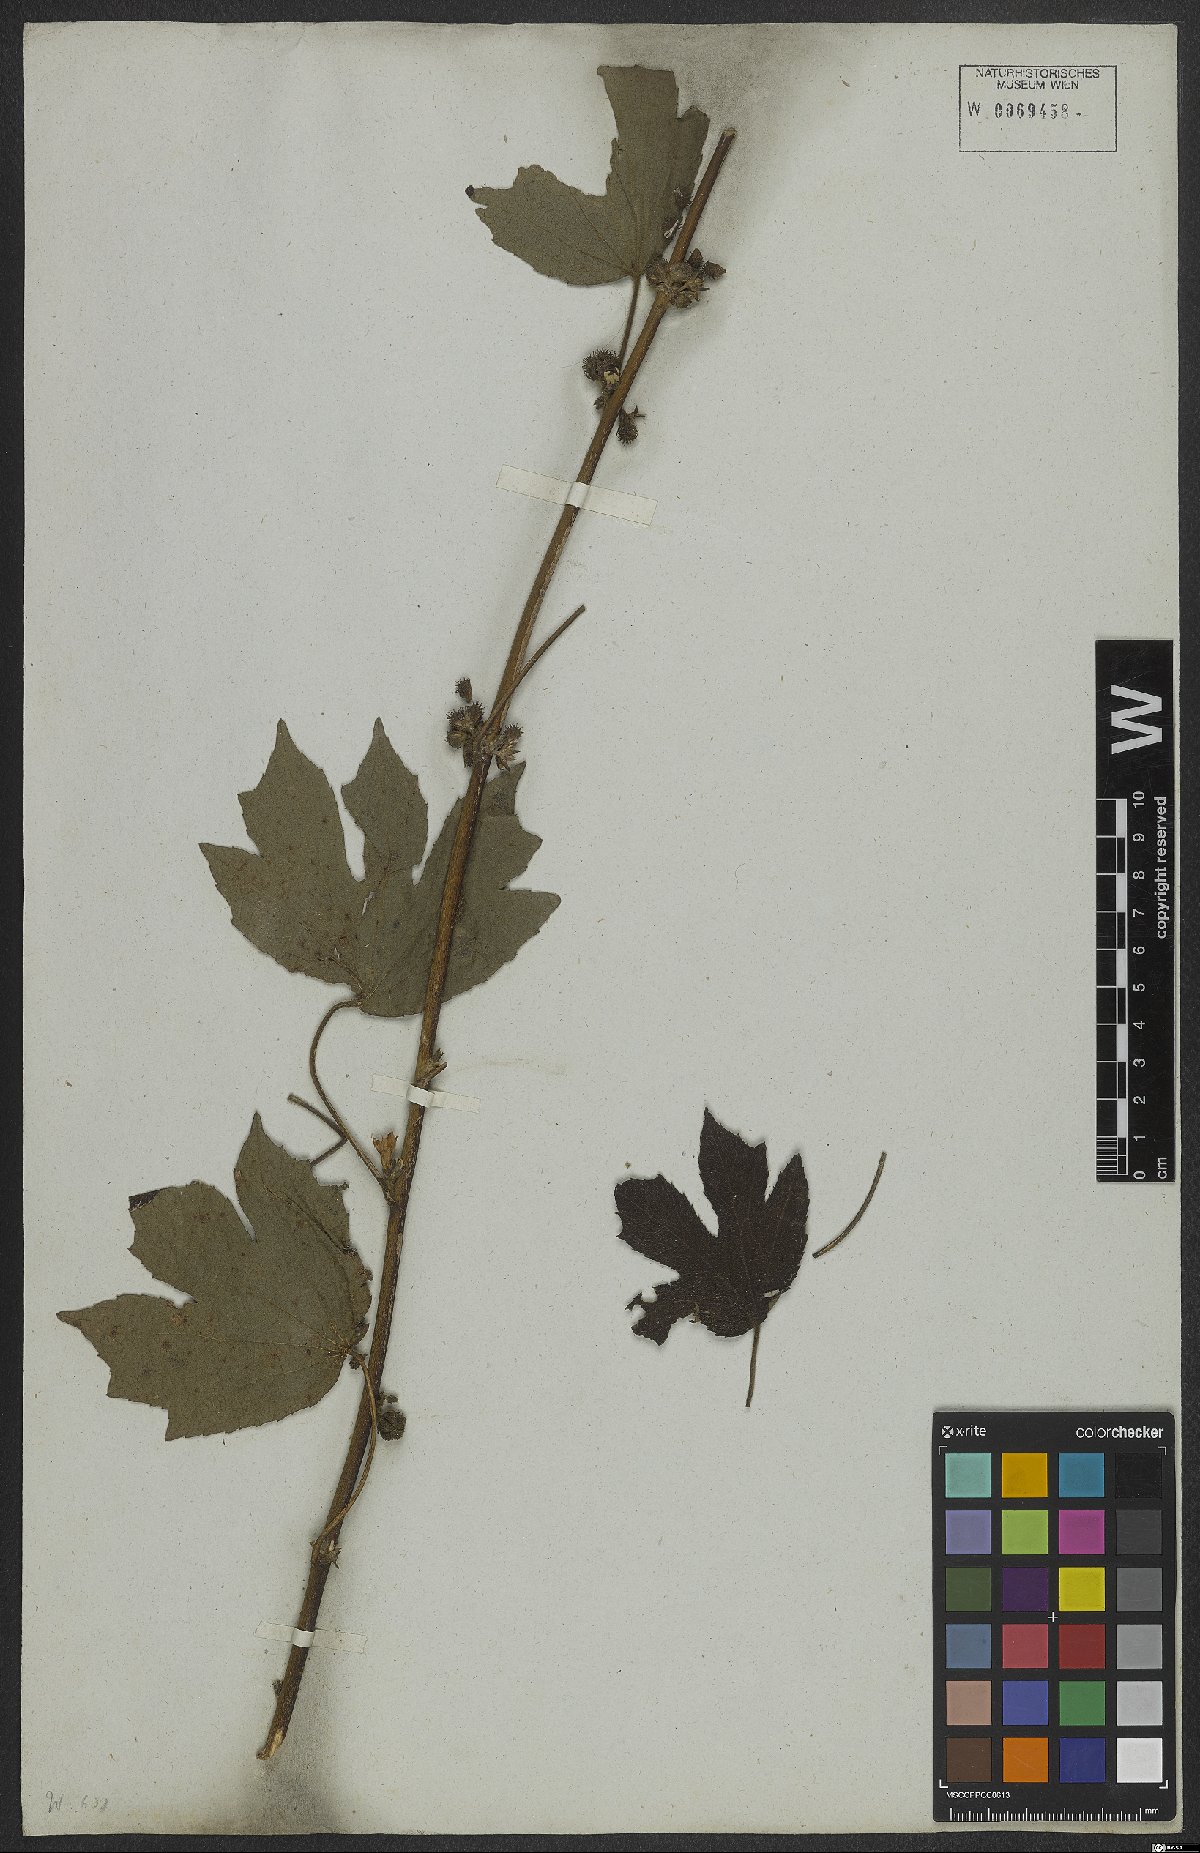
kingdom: Plantae
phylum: Tracheophyta
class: Magnoliopsida
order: Malvales
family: Malvaceae
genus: Urena
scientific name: Urena lobata
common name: Caesarweed
